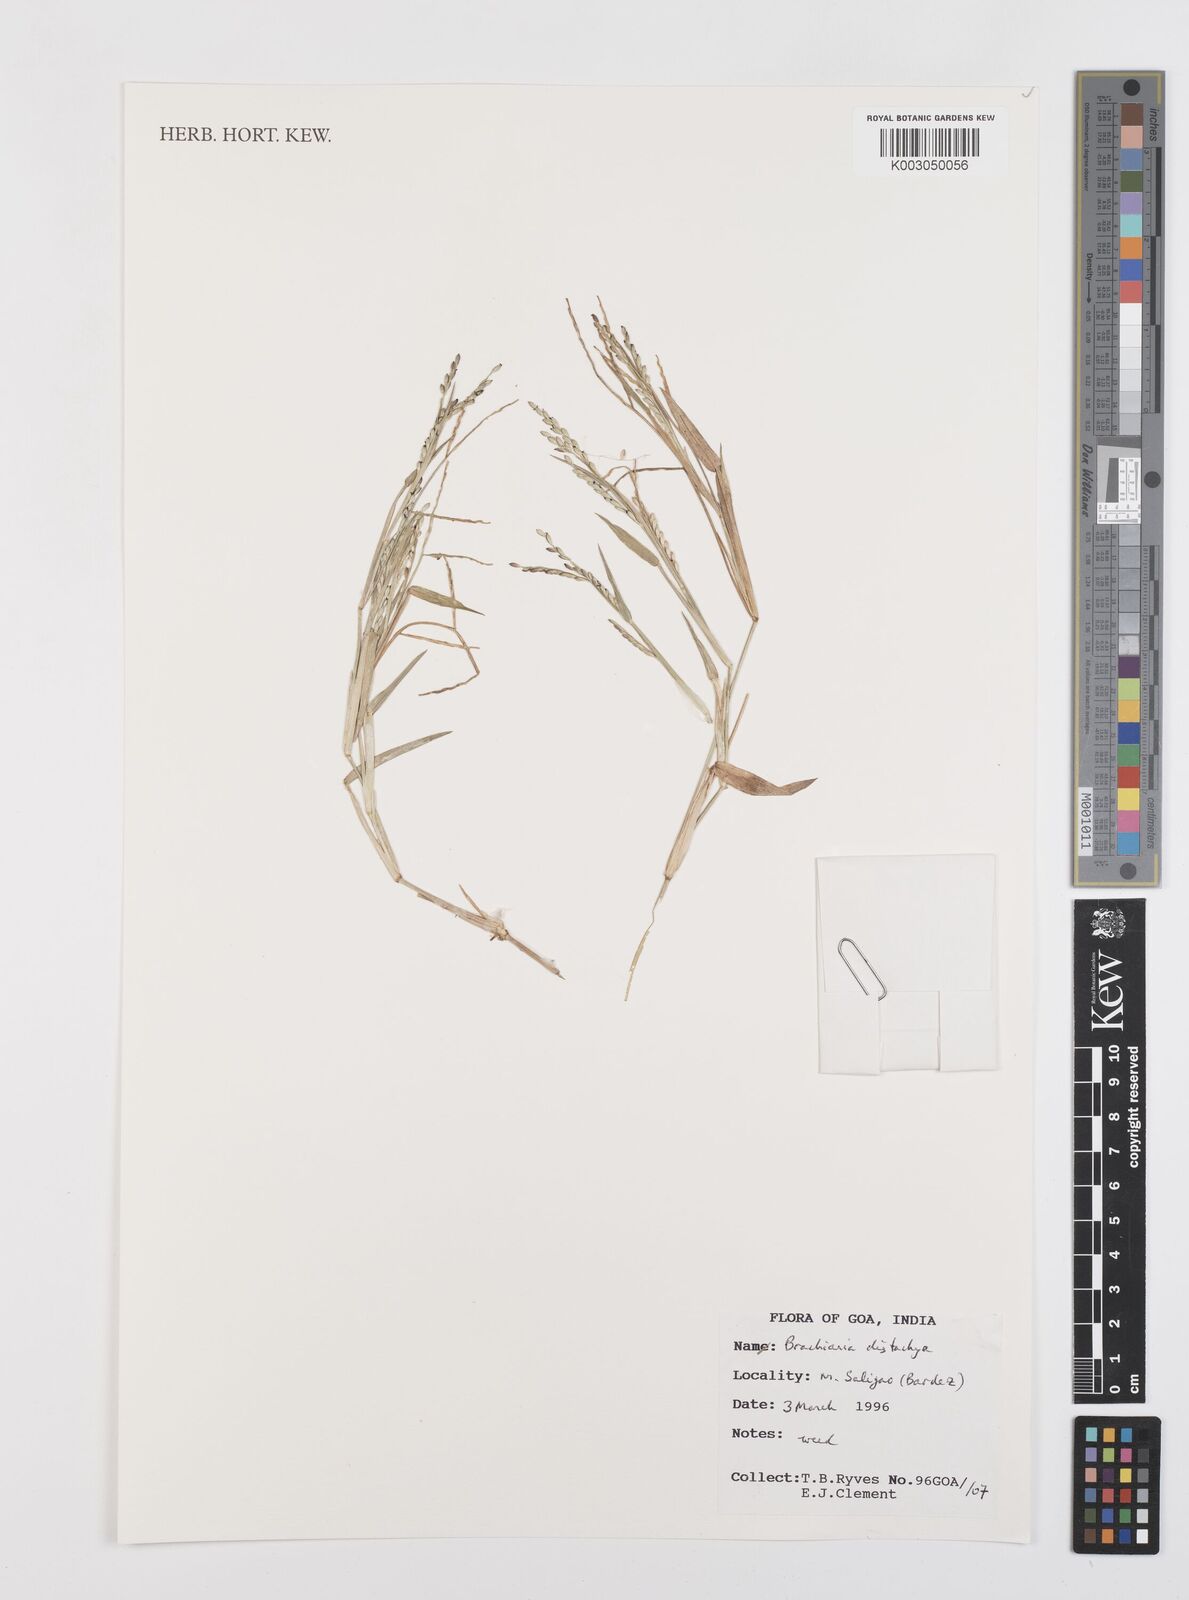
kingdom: Plantae
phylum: Tracheophyta
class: Liliopsida
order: Poales
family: Poaceae
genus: Urochloa
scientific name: Urochloa distachyos
